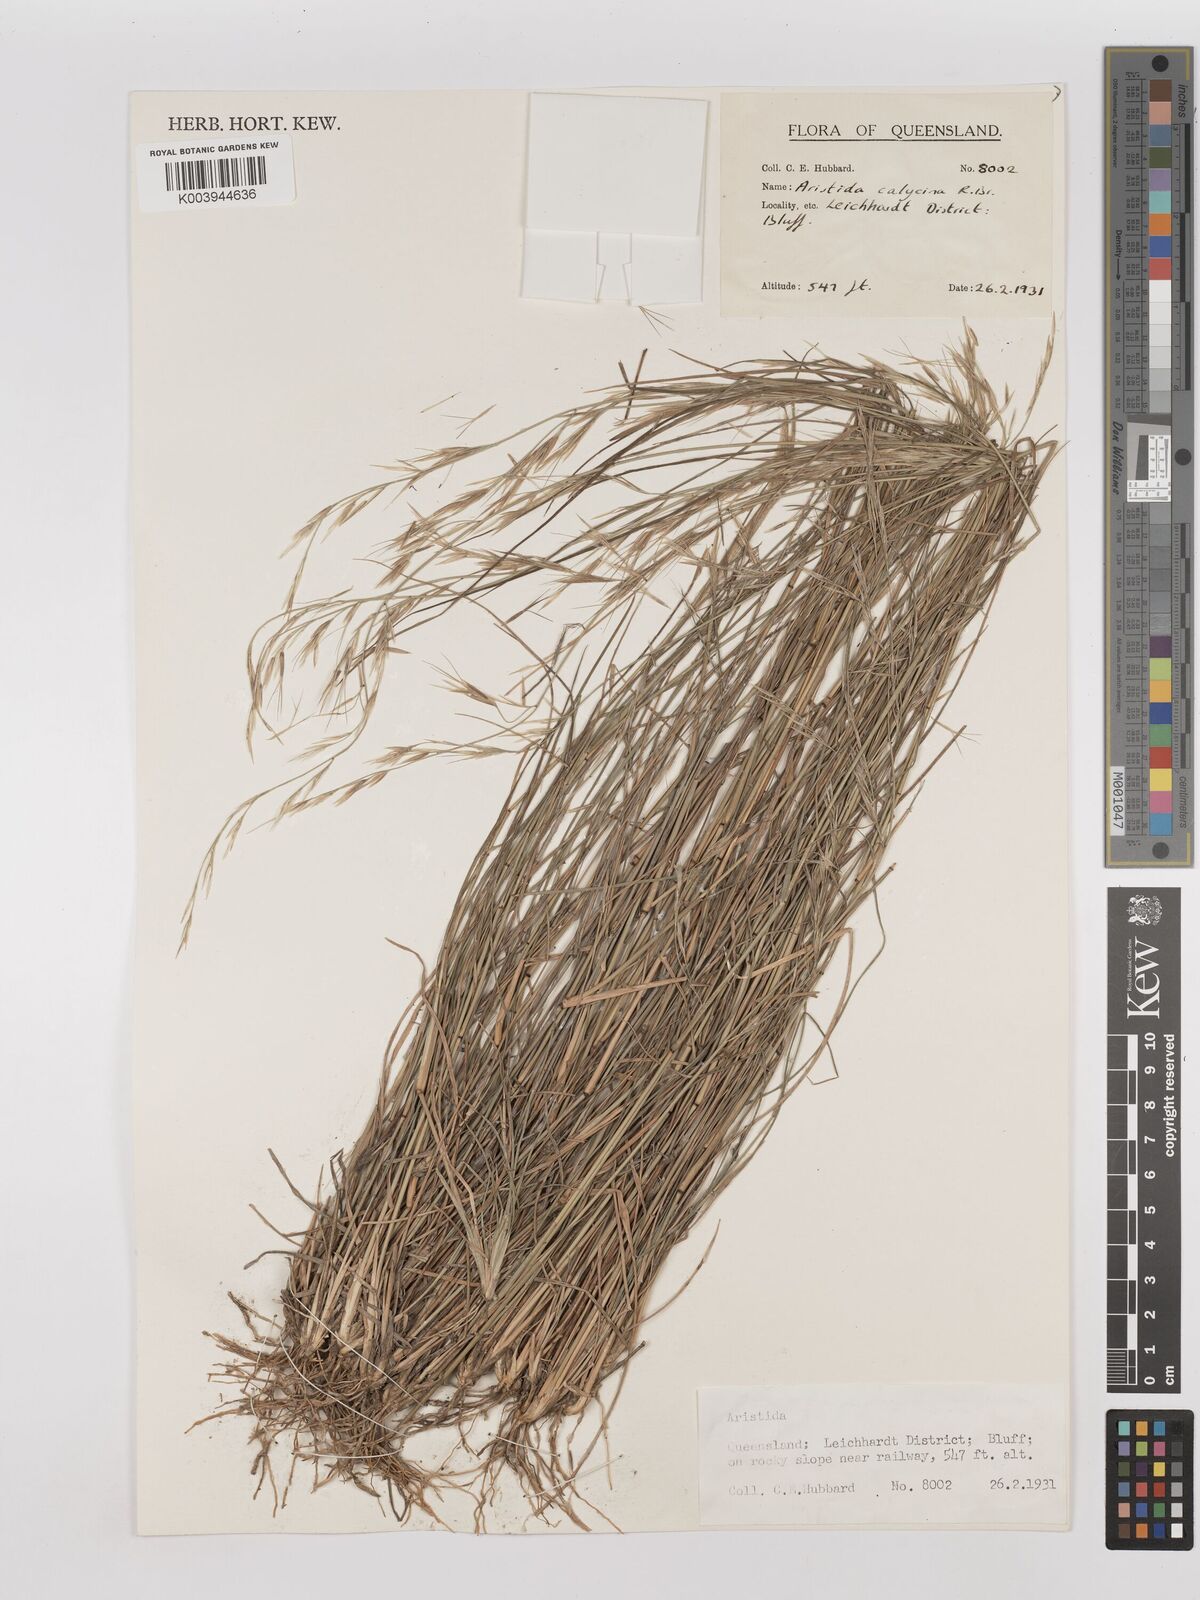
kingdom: Plantae
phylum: Tracheophyta
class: Liliopsida
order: Poales
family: Poaceae
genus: Aristida
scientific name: Aristida calycina
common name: Dark wire grass
